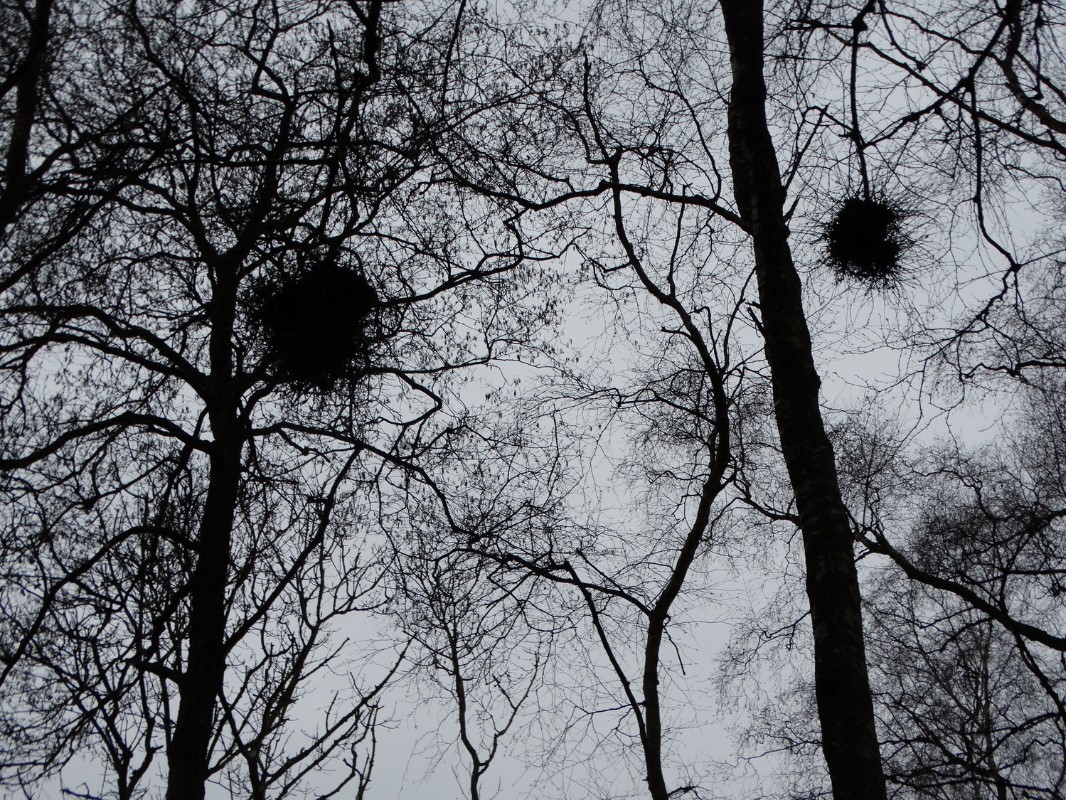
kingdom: Fungi
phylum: Ascomycota
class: Taphrinomycetes
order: Taphrinales
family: Taphrinaceae
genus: Taphrina
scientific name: Taphrina betulina
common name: hekse-sækdug
